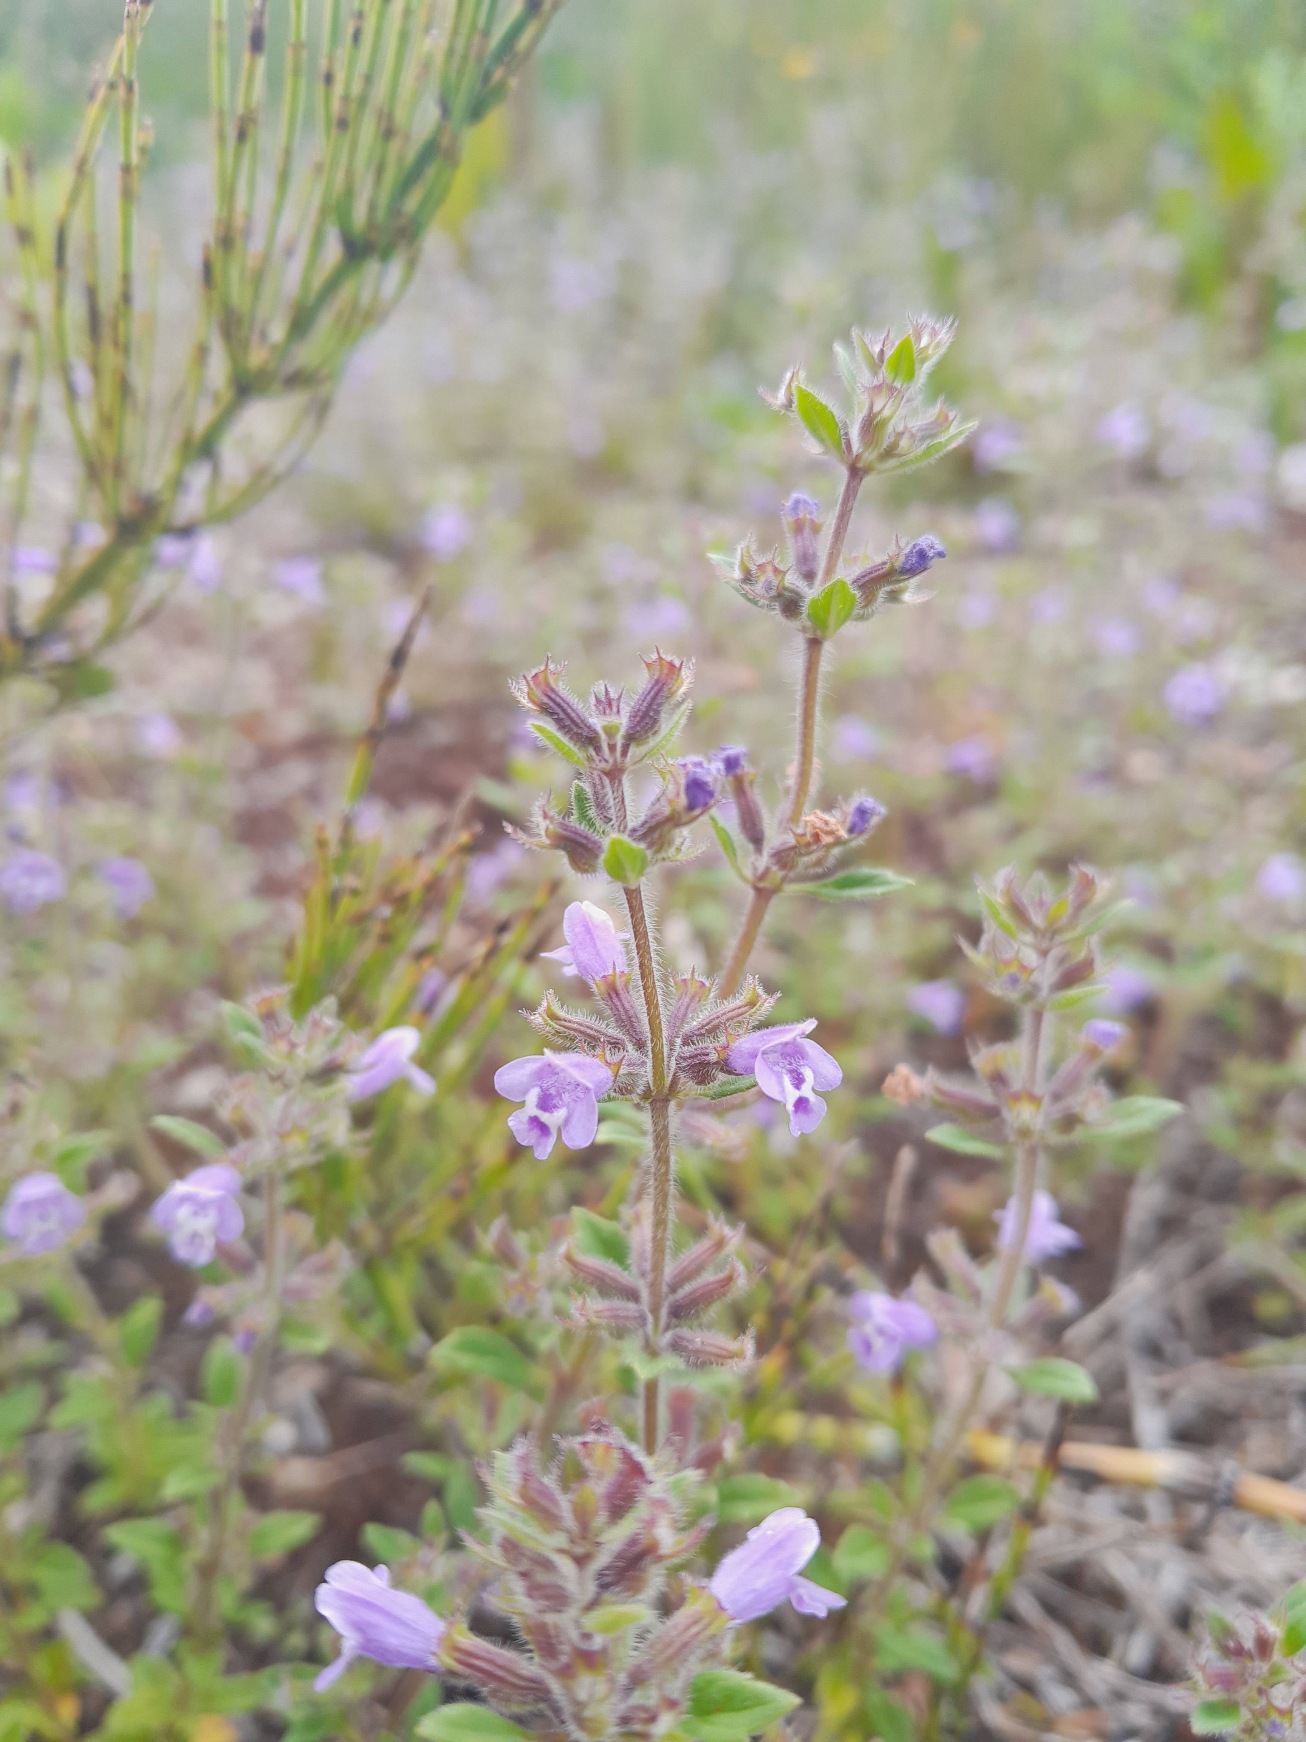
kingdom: Plantae
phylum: Tracheophyta
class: Magnoliopsida
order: Lamiales
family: Lamiaceae
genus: Clinopodium
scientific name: Clinopodium acinos
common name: Voldtimian
